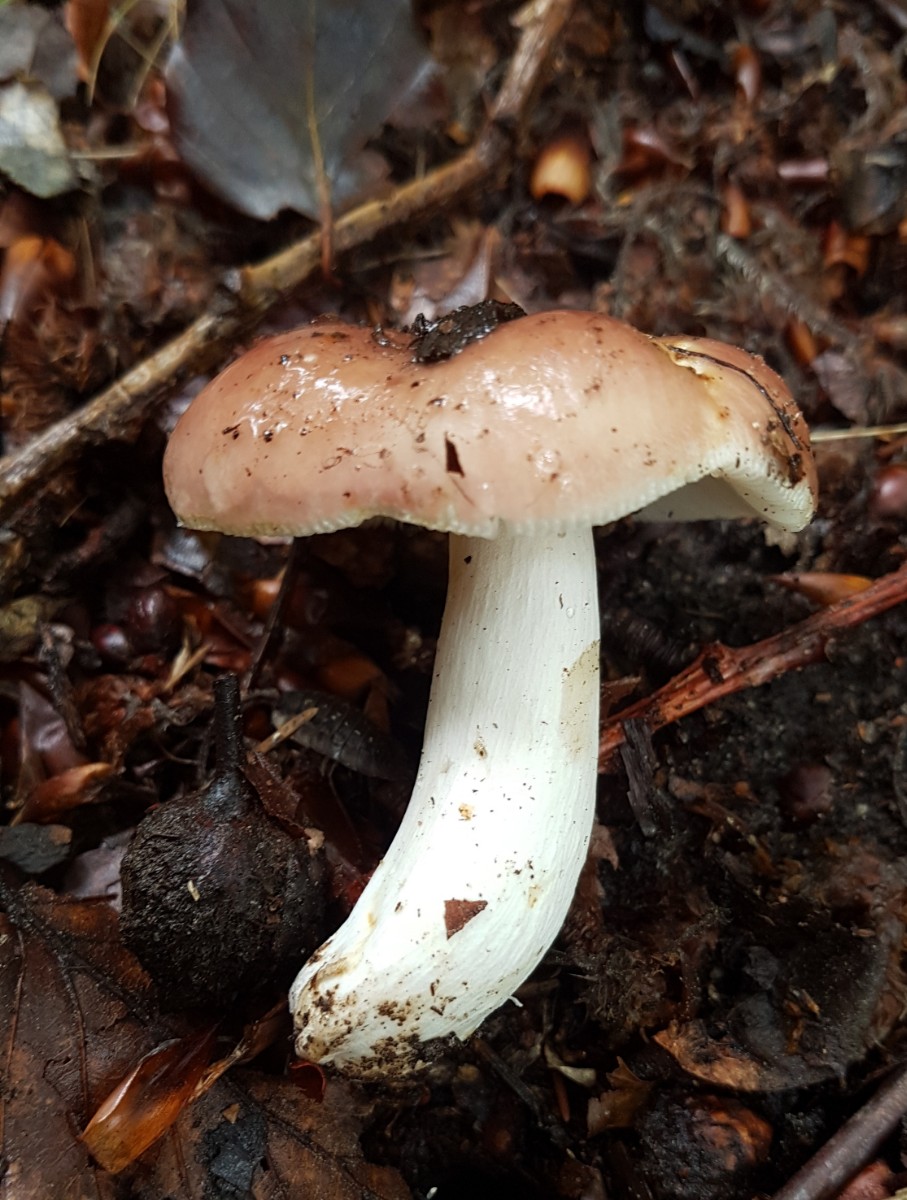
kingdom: Fungi
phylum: Basidiomycota
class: Agaricomycetes
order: Russulales
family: Russulaceae
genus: Russula
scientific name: Russula vesca
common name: spiselig skørhat
